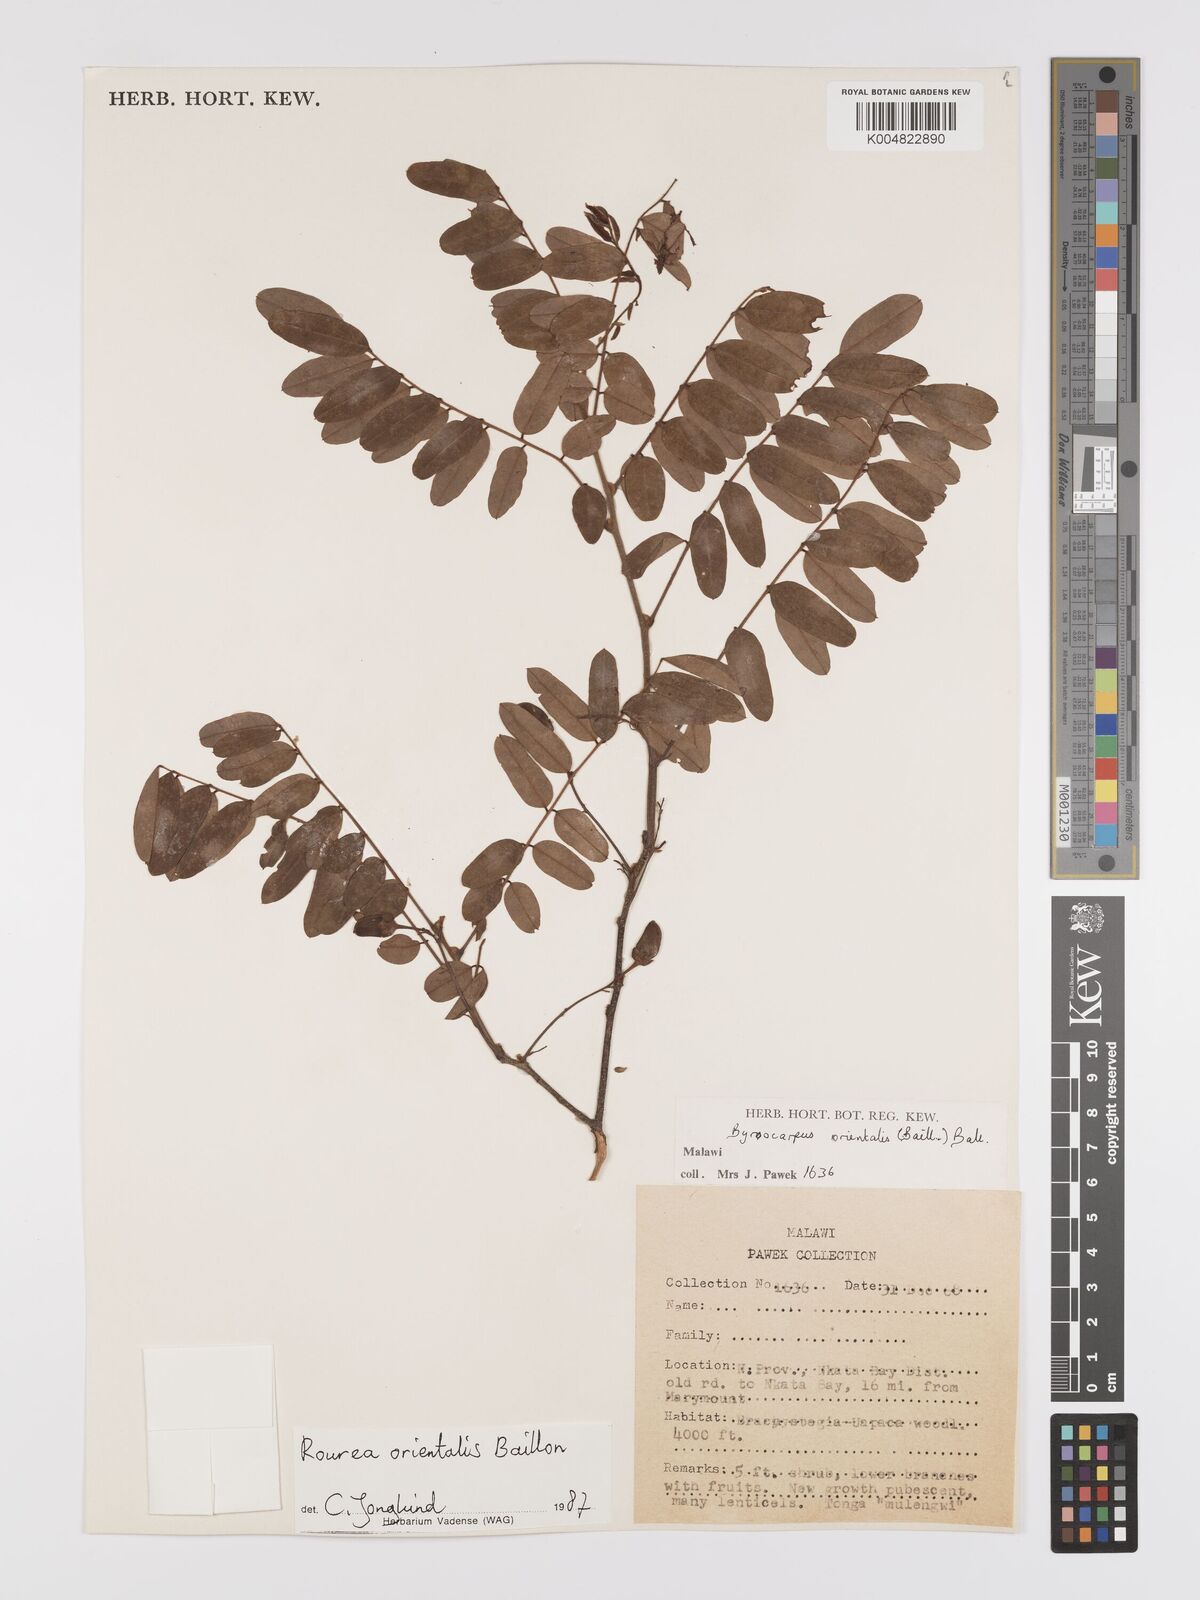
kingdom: Plantae
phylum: Tracheophyta
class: Magnoliopsida
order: Oxalidales
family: Connaraceae
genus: Rourea
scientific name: Rourea orientalis
